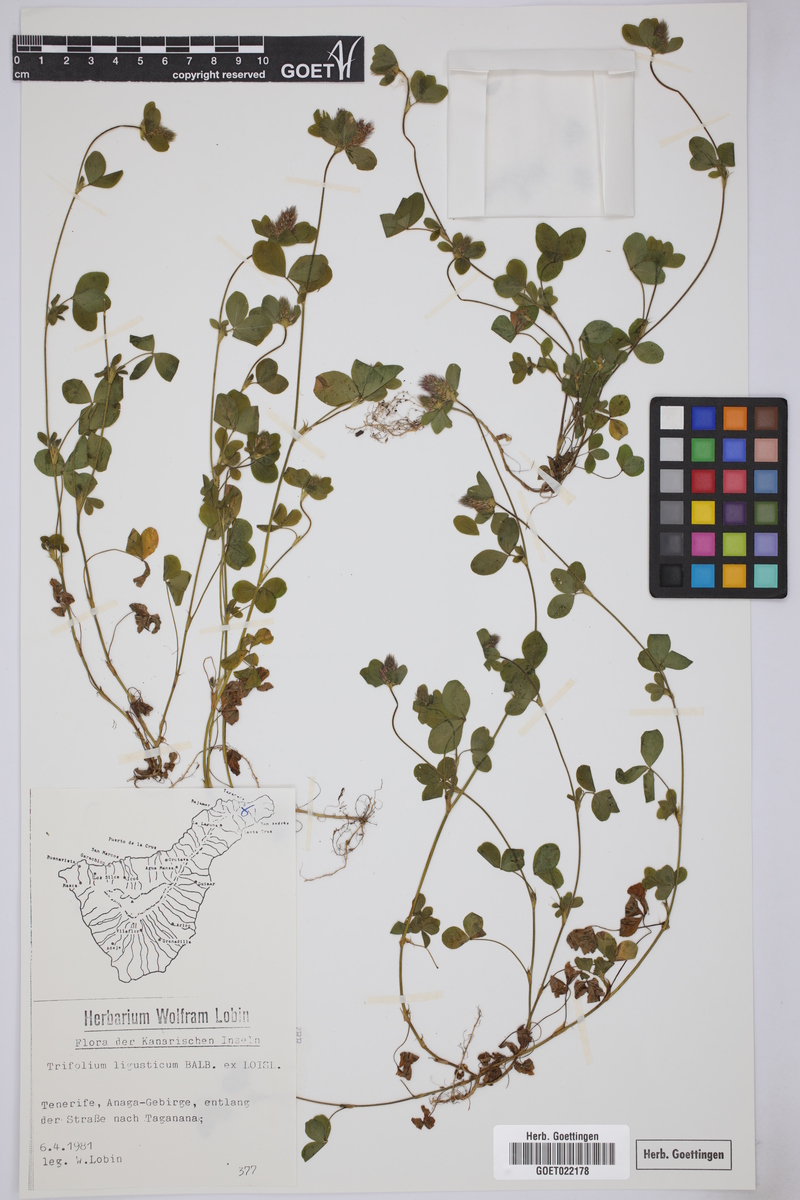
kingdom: Plantae
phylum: Tracheophyta
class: Magnoliopsida
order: Fabales
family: Fabaceae
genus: Trifolium
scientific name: Trifolium ligusticum
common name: Ligurian clover
